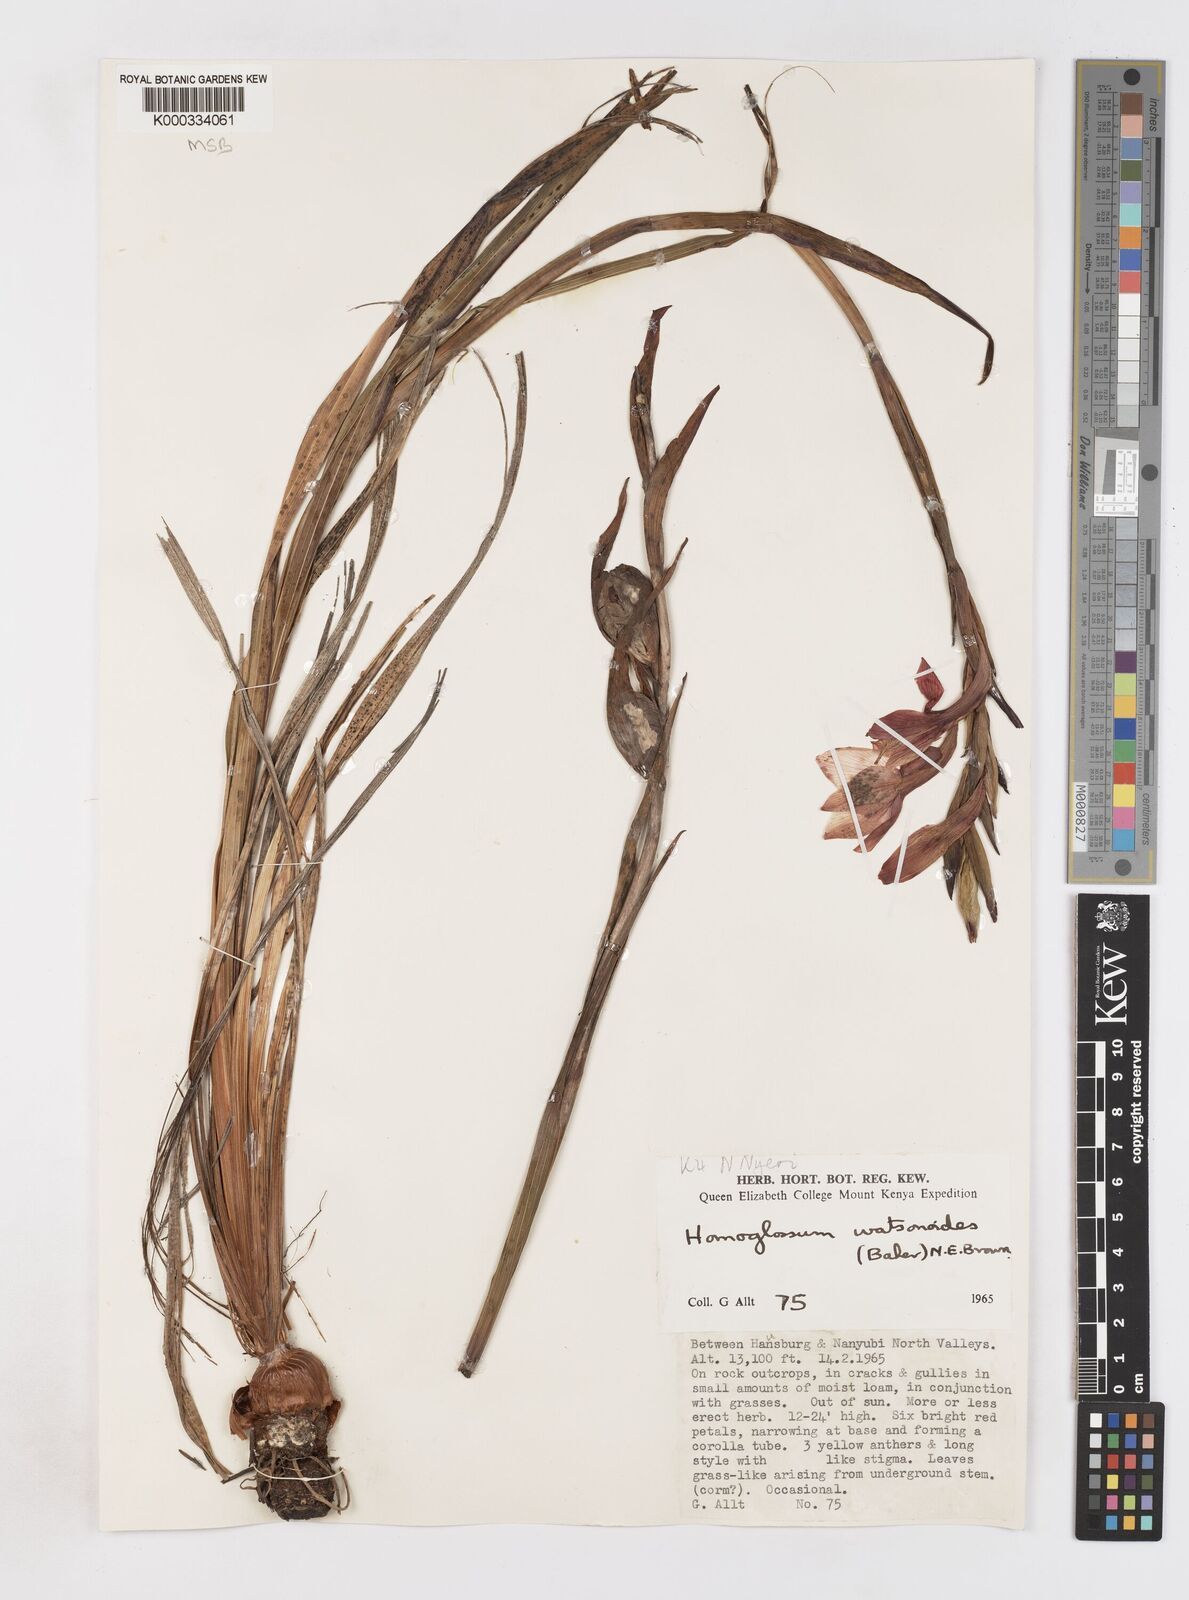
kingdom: Plantae
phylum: Tracheophyta
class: Liliopsida
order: Asparagales
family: Iridaceae
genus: Gladiolus
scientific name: Gladiolus watsonioides
